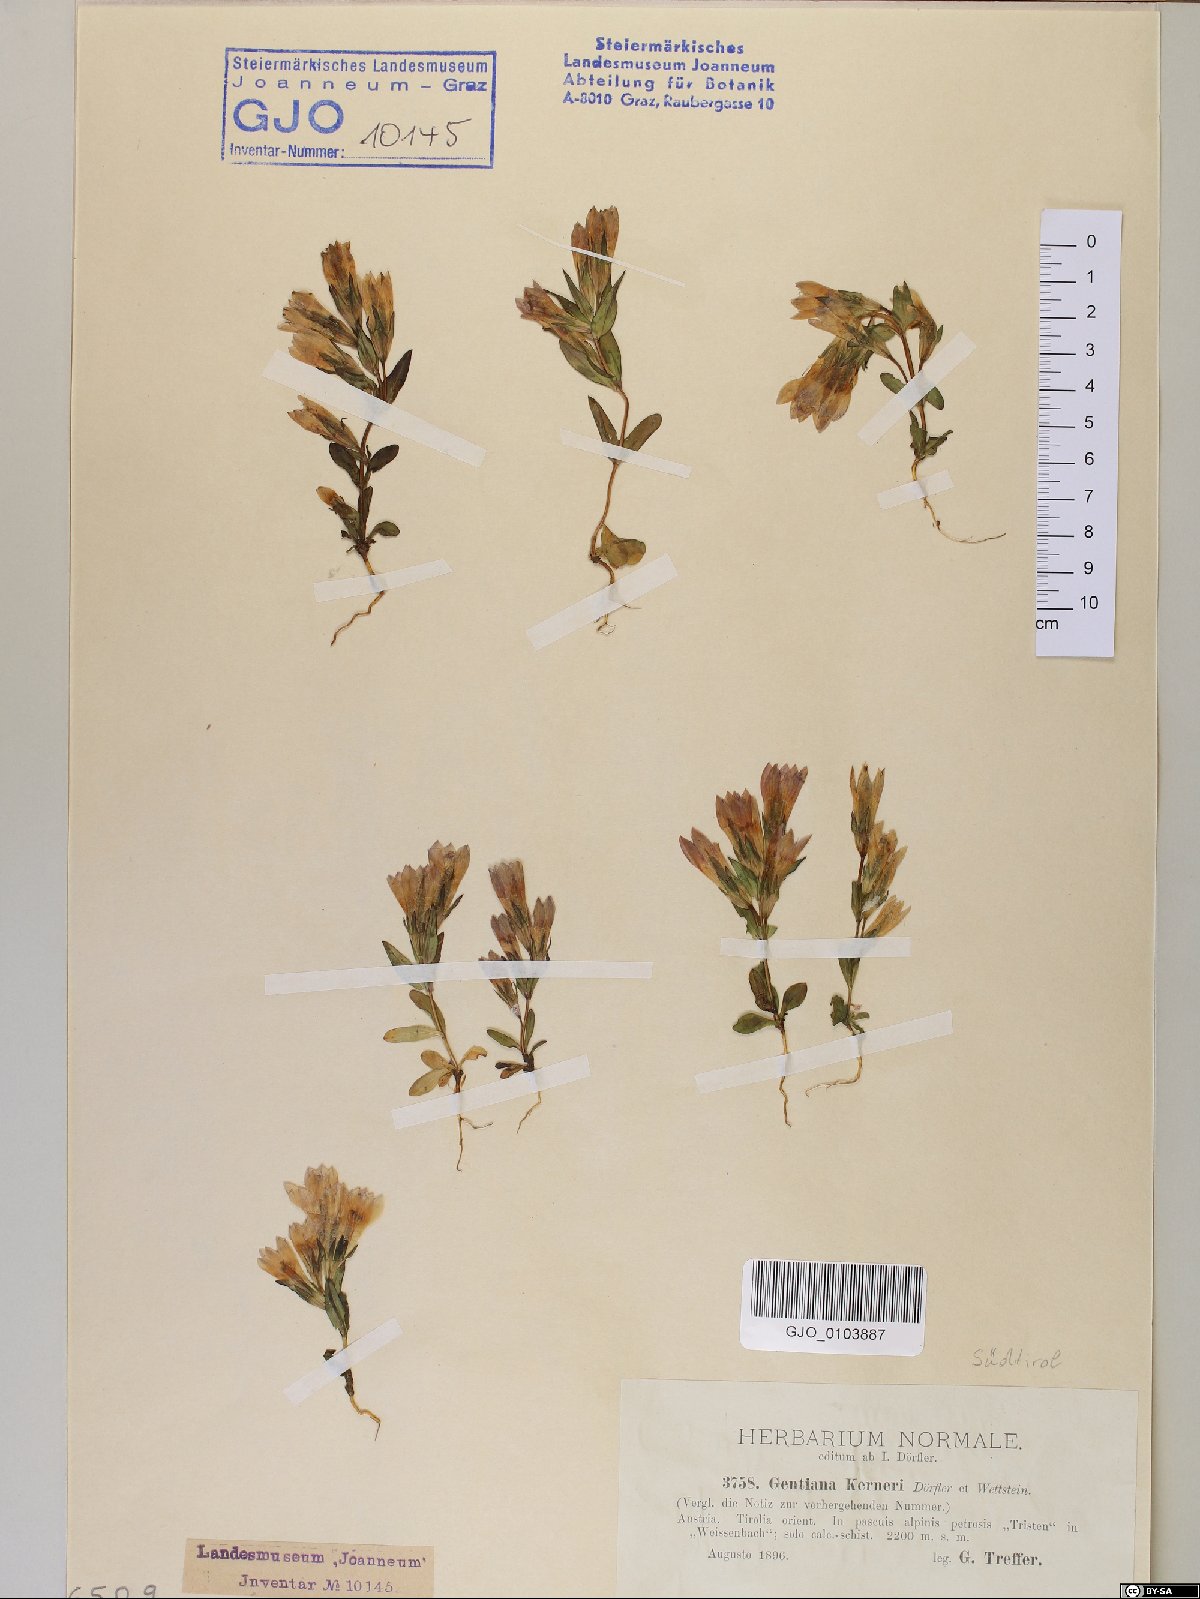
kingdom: Plantae
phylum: Tracheophyta
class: Magnoliopsida
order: Gentianales
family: Gentianaceae
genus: Gentianella
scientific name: Gentianella rhaetica
